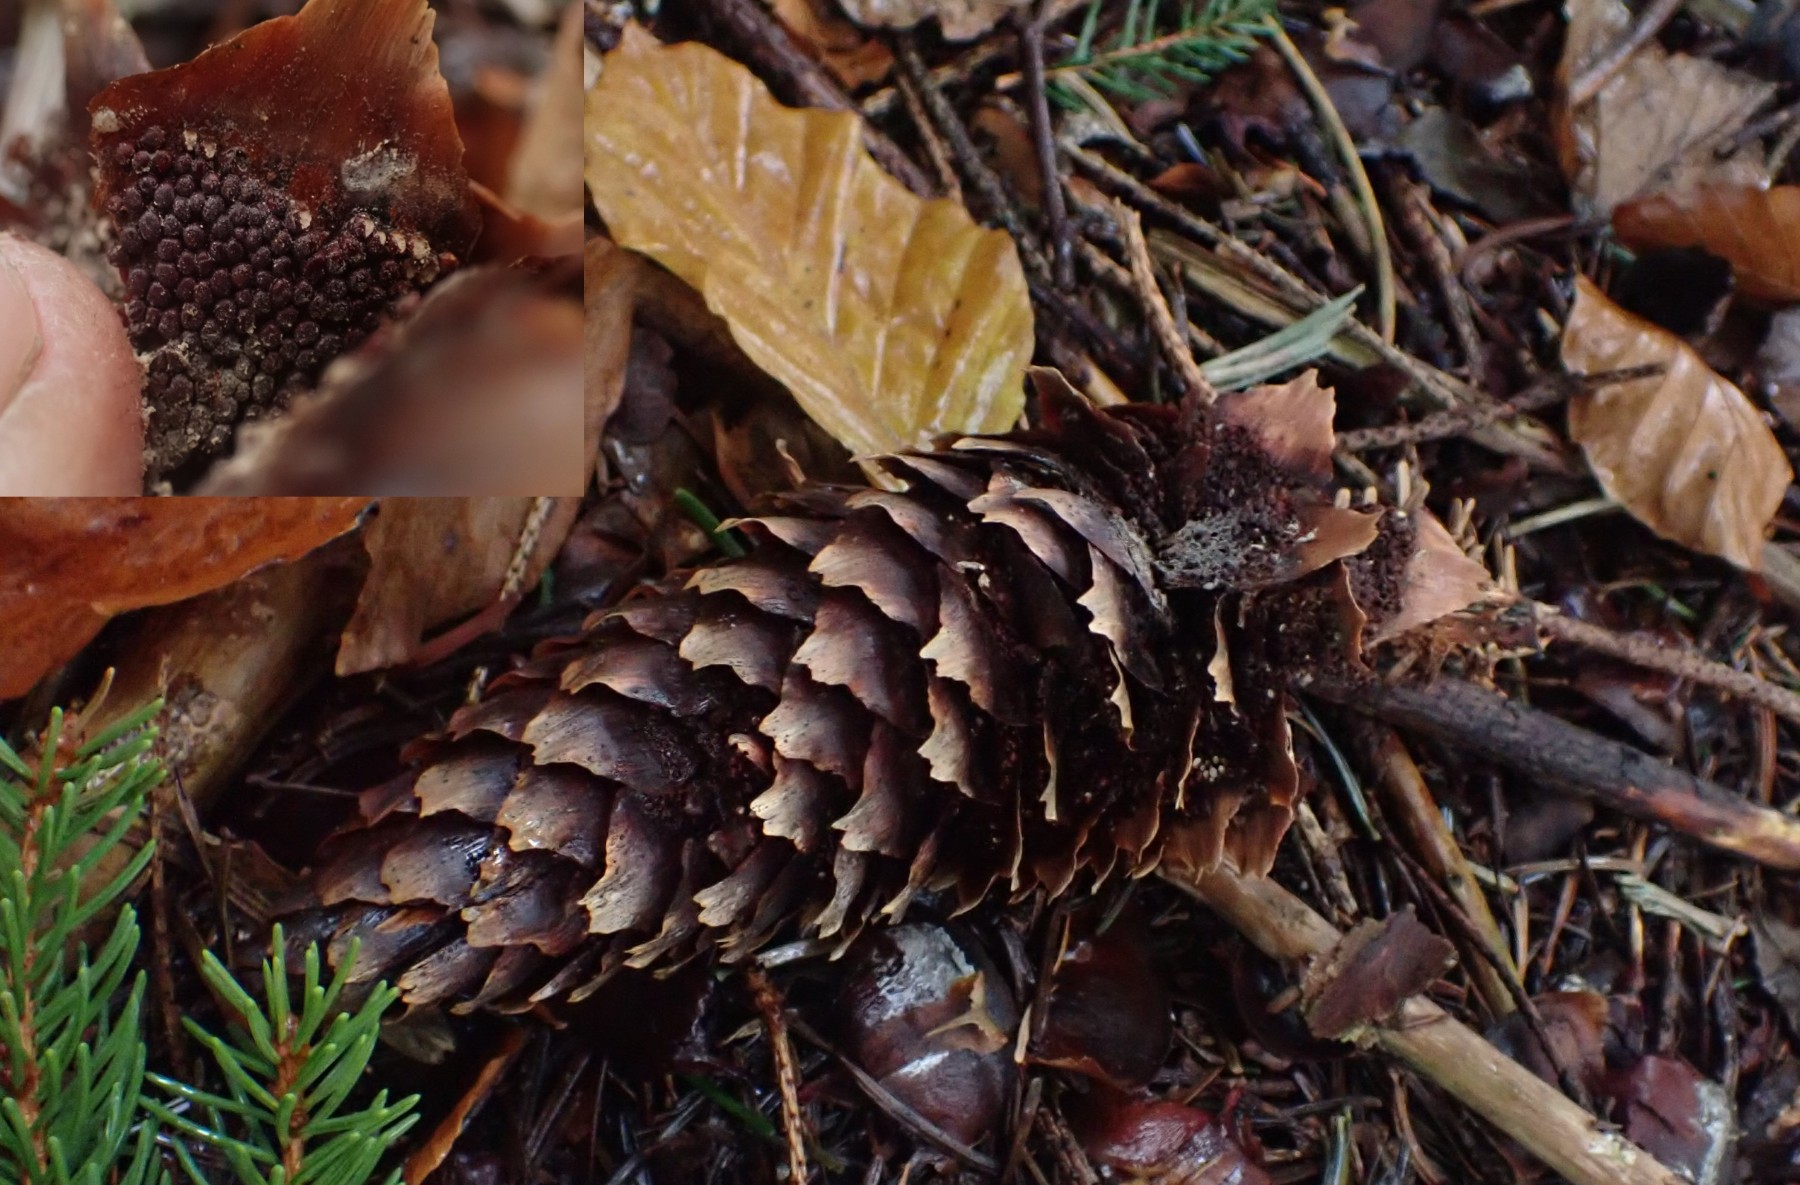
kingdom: Fungi
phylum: Basidiomycota
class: Pucciniomycetes
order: Pucciniales
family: Pucciniastraceae
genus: Thekopsora
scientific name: Thekopsora areolata
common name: grankogle-nålerust
